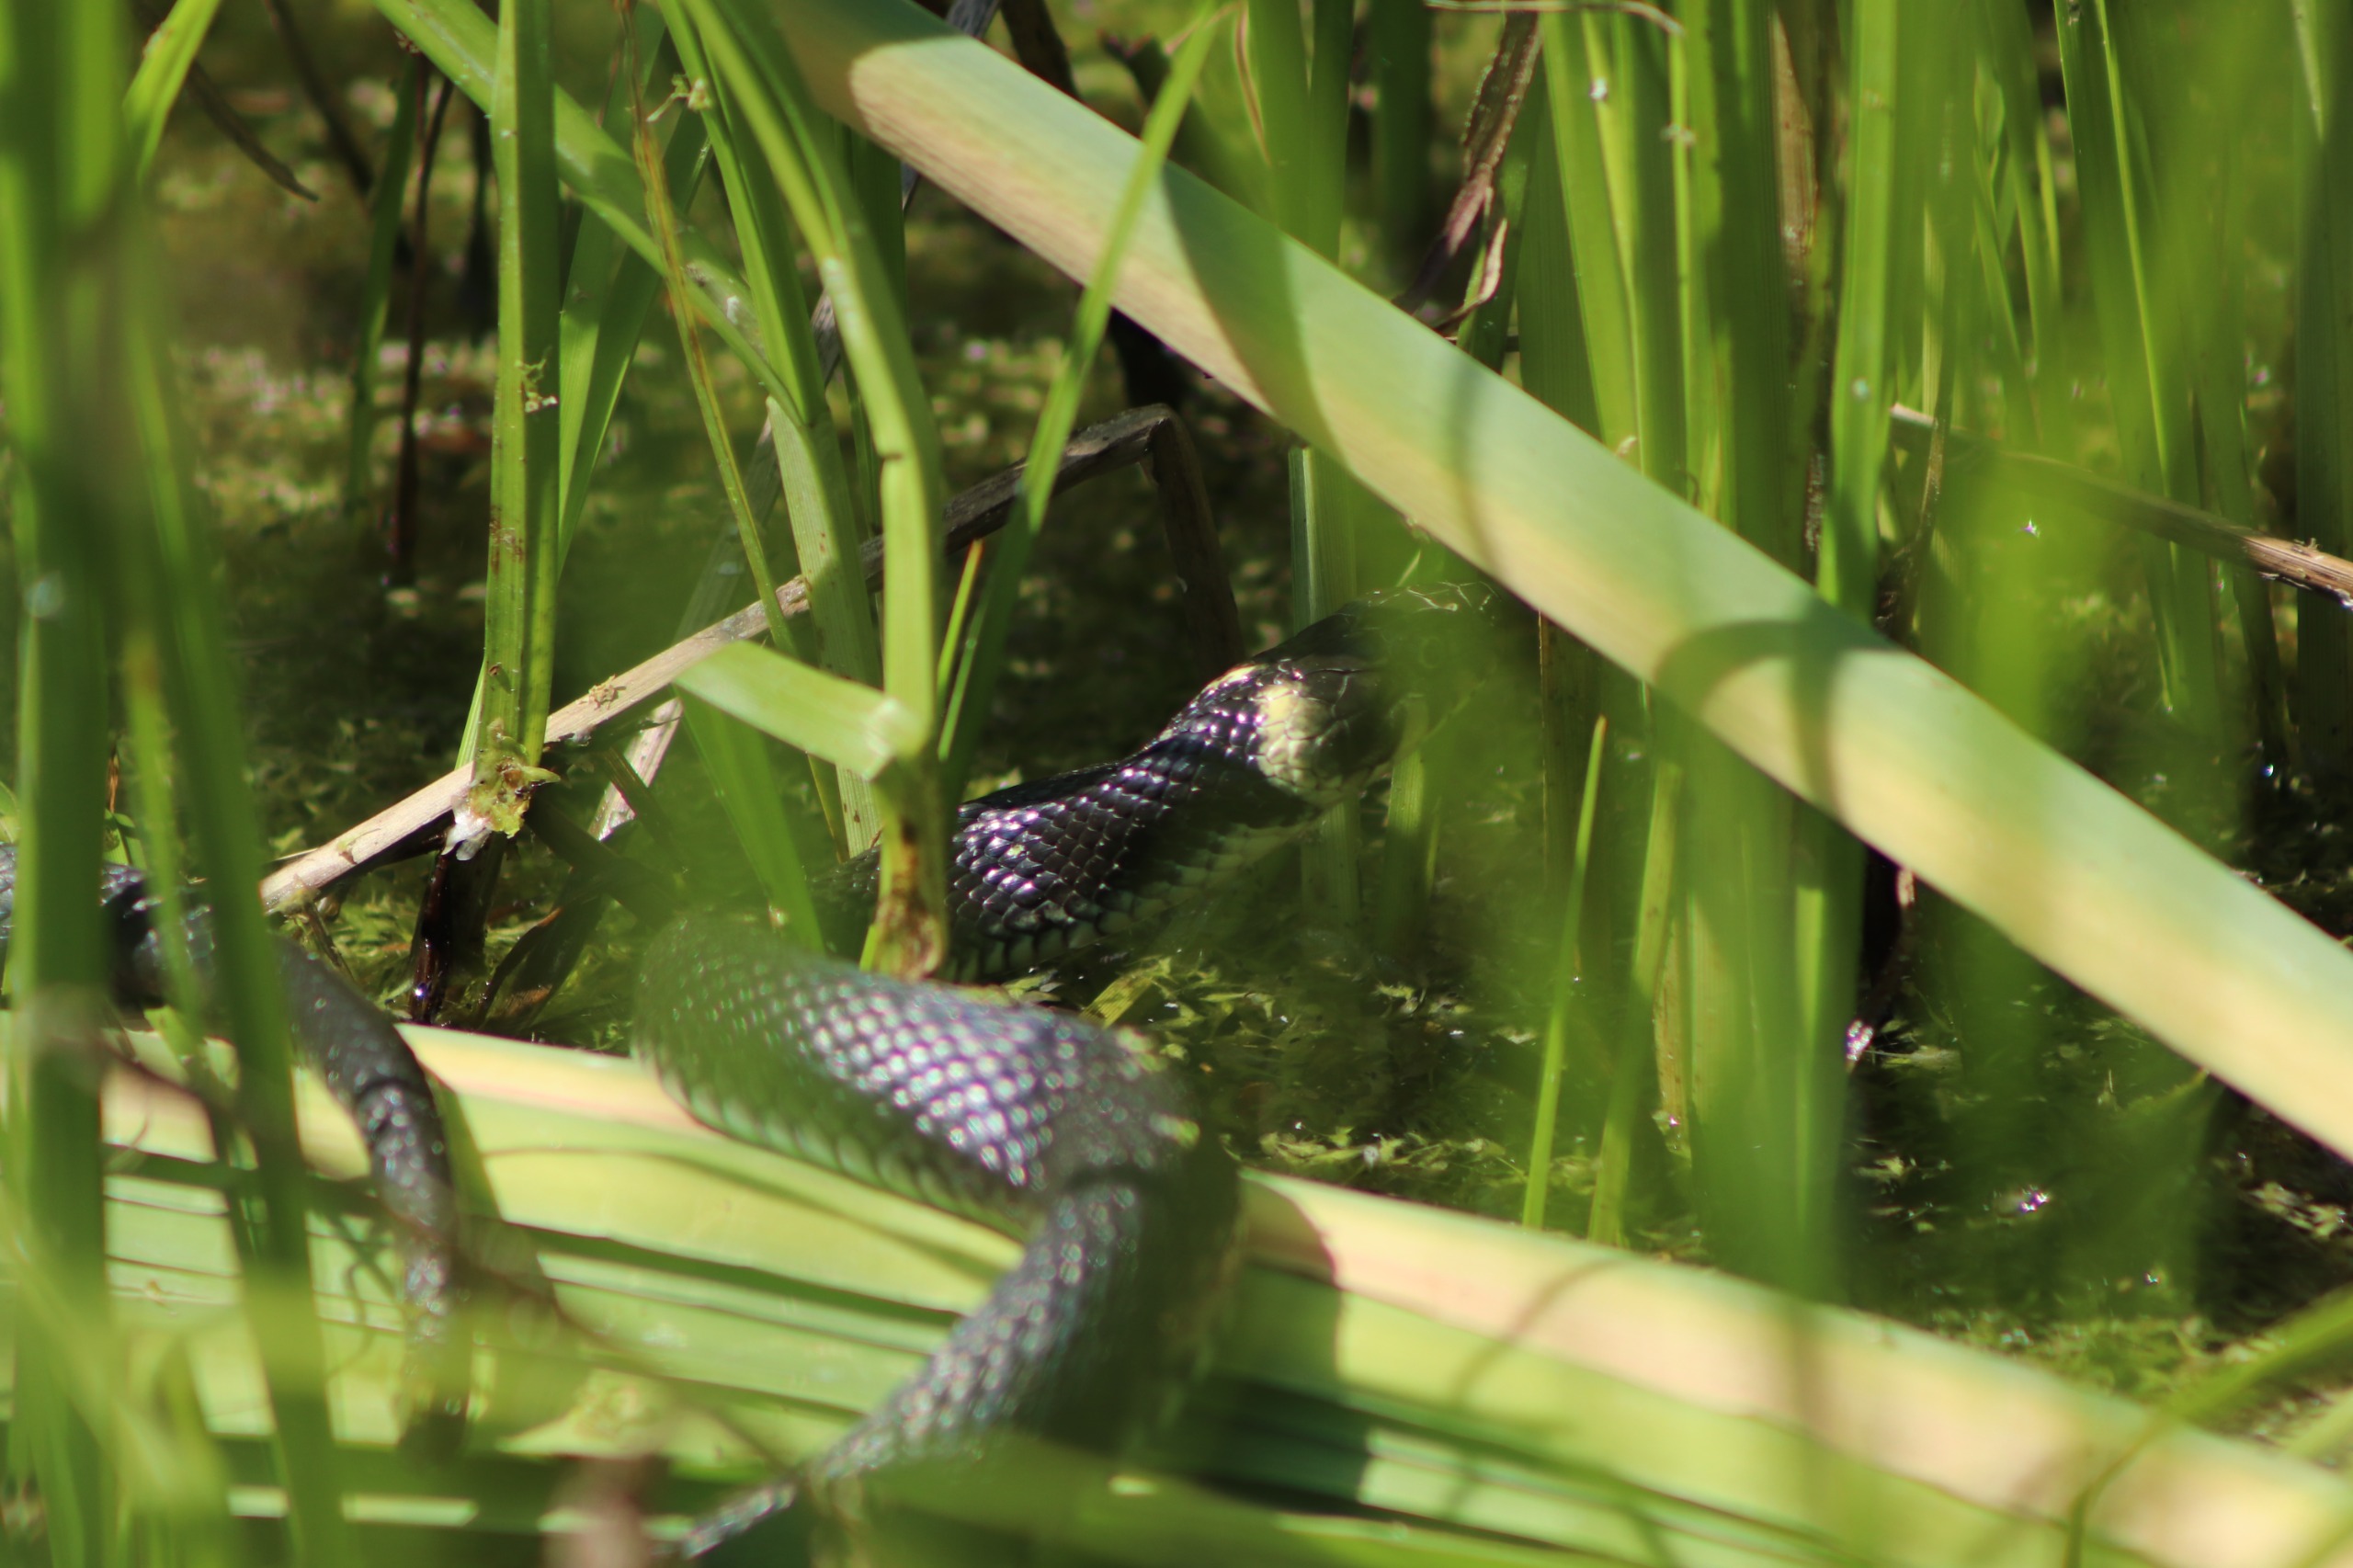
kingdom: Animalia
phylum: Chordata
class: Squamata
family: Colubridae
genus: Natrix
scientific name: Natrix natrix
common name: Snog
